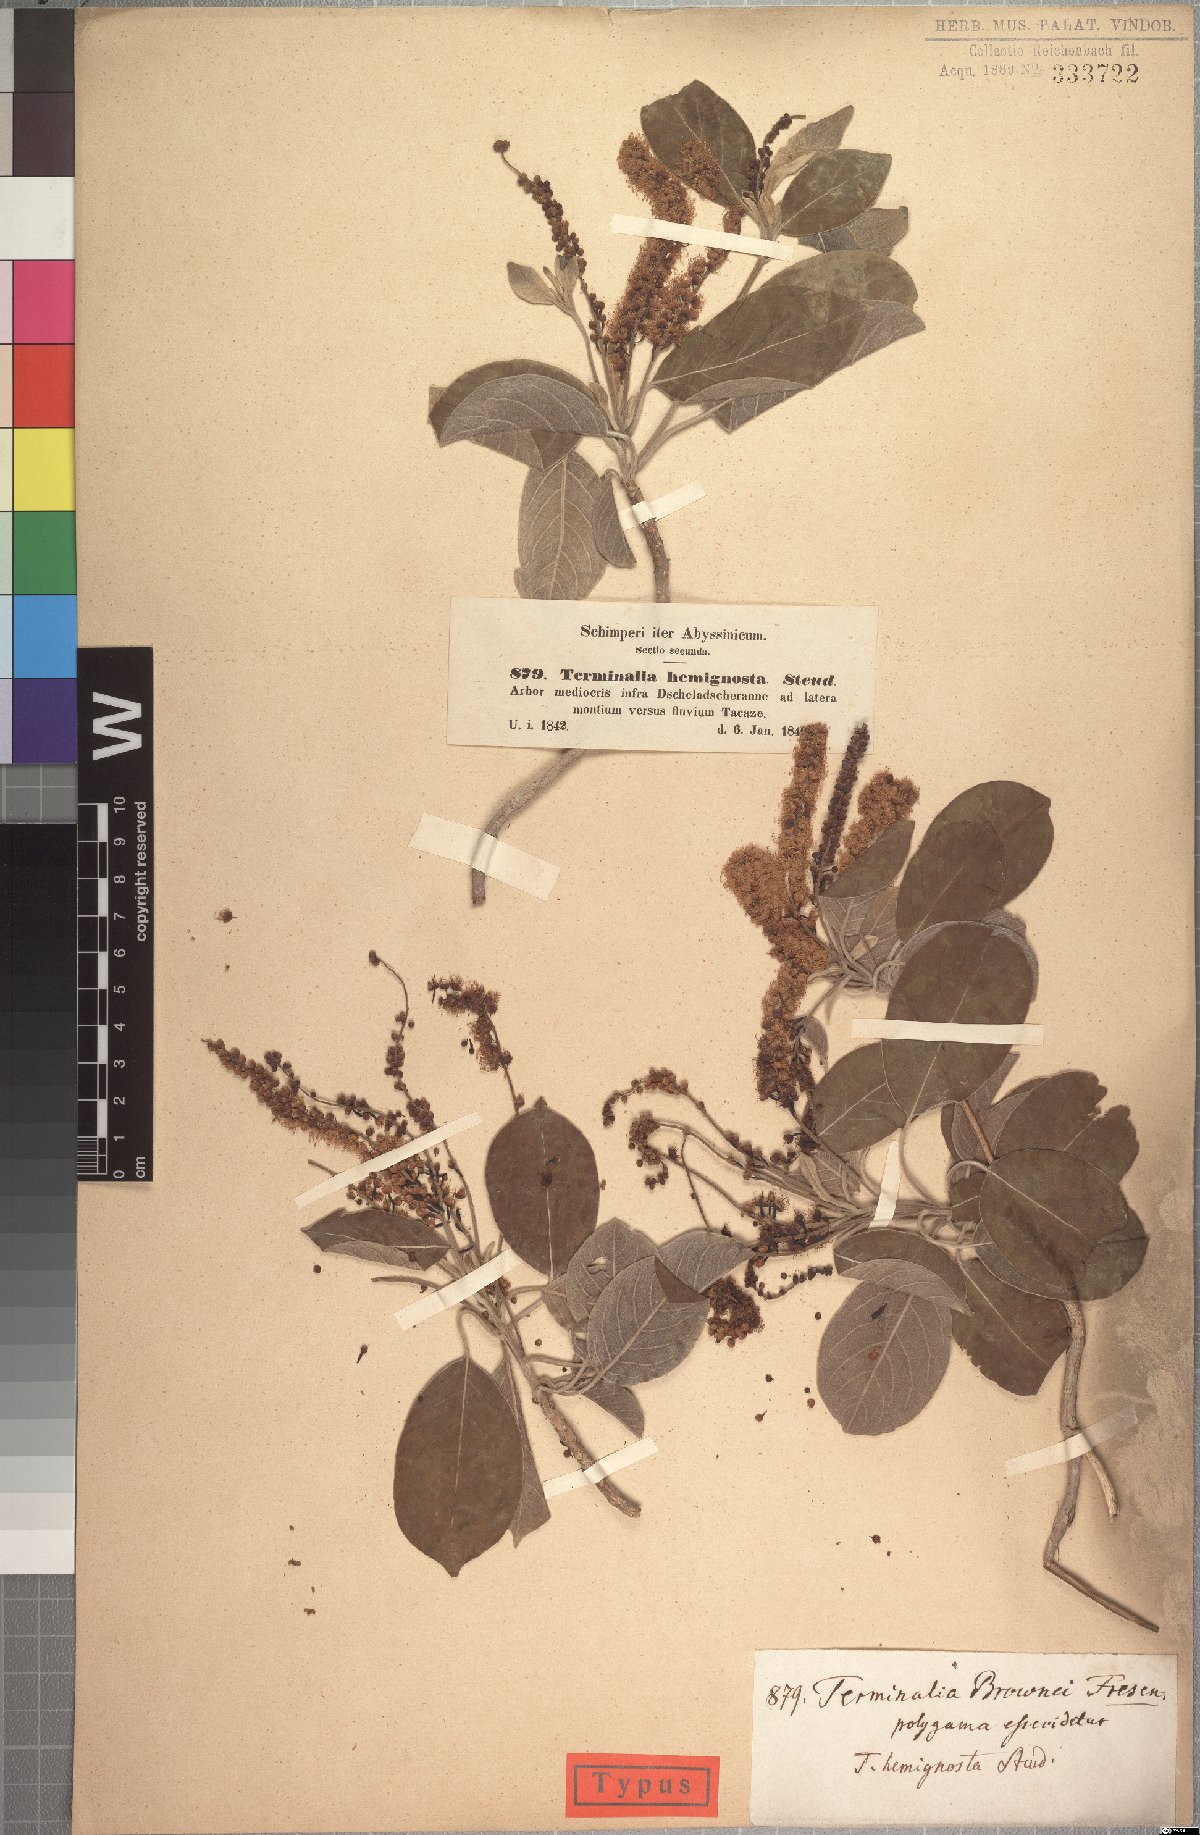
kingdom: Plantae
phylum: Tracheophyta
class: Magnoliopsida
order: Myrtales
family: Combretaceae
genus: Terminalia
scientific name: Terminalia brownii
